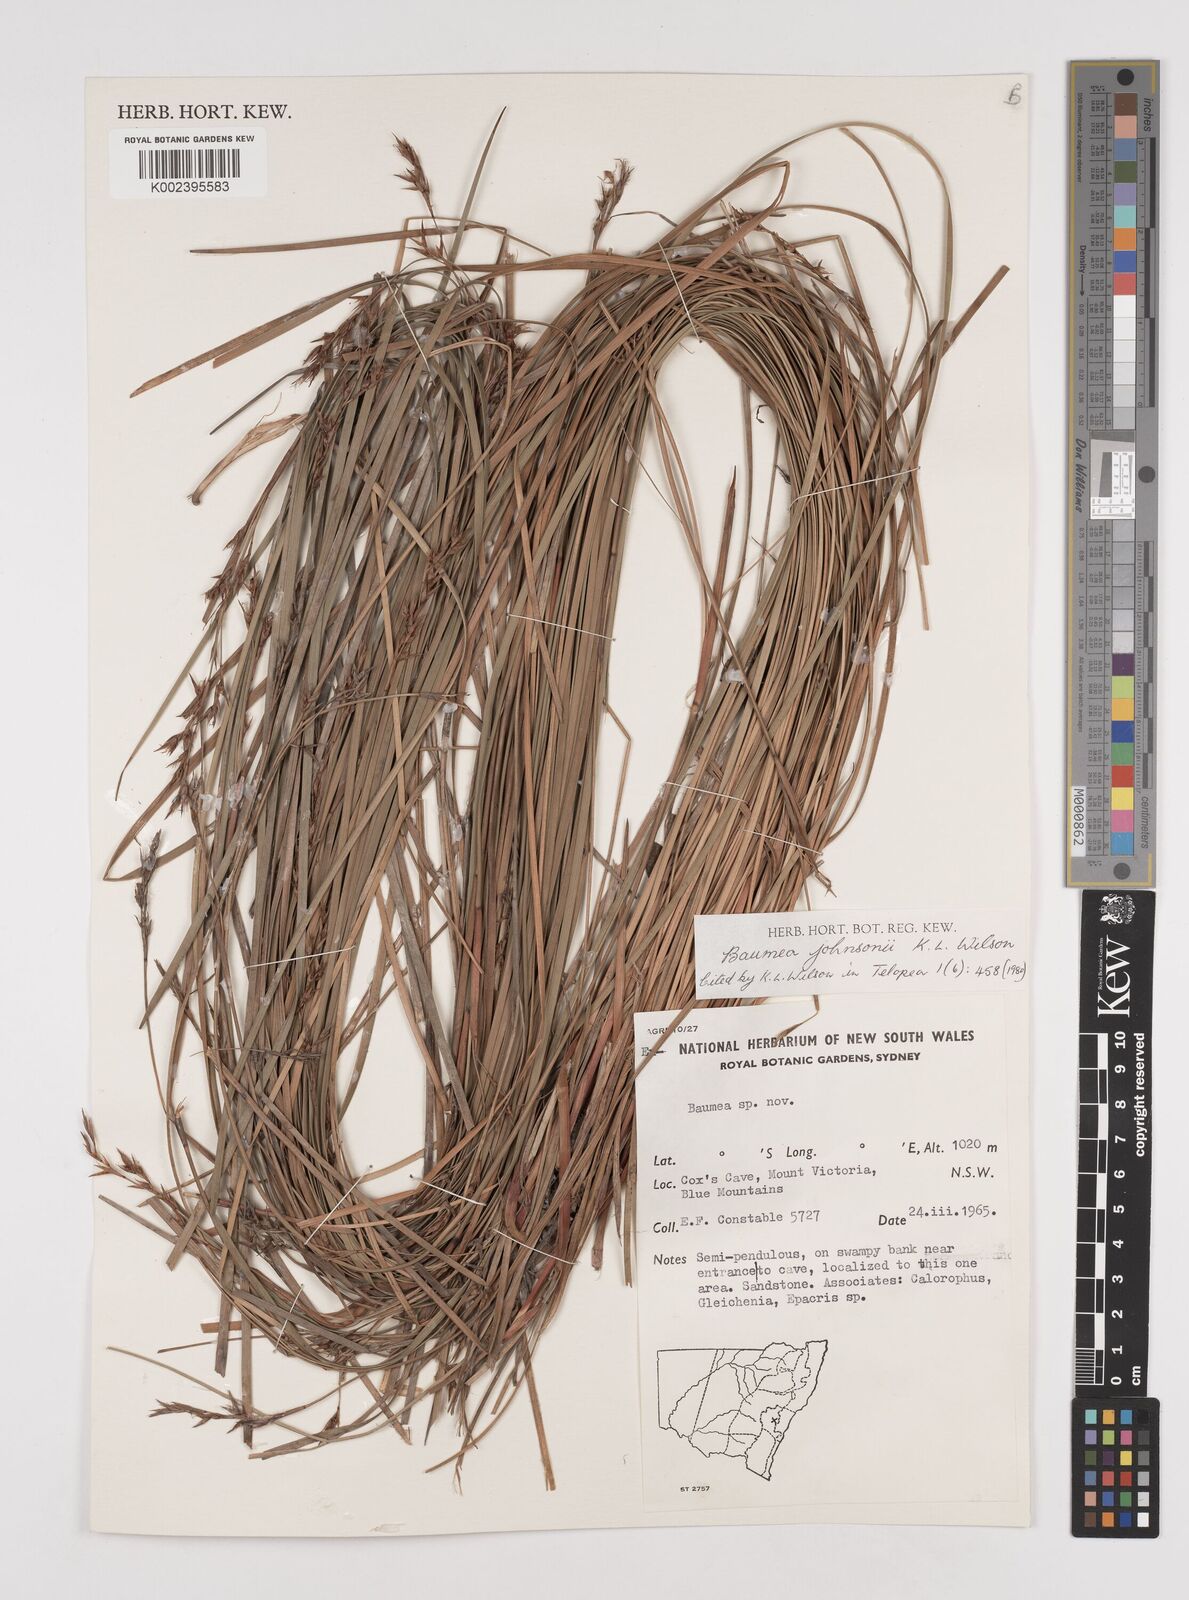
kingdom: Plantae
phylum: Tracheophyta
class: Liliopsida
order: Poales
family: Cyperaceae
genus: Machaerina
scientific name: Machaerina johnsonii
